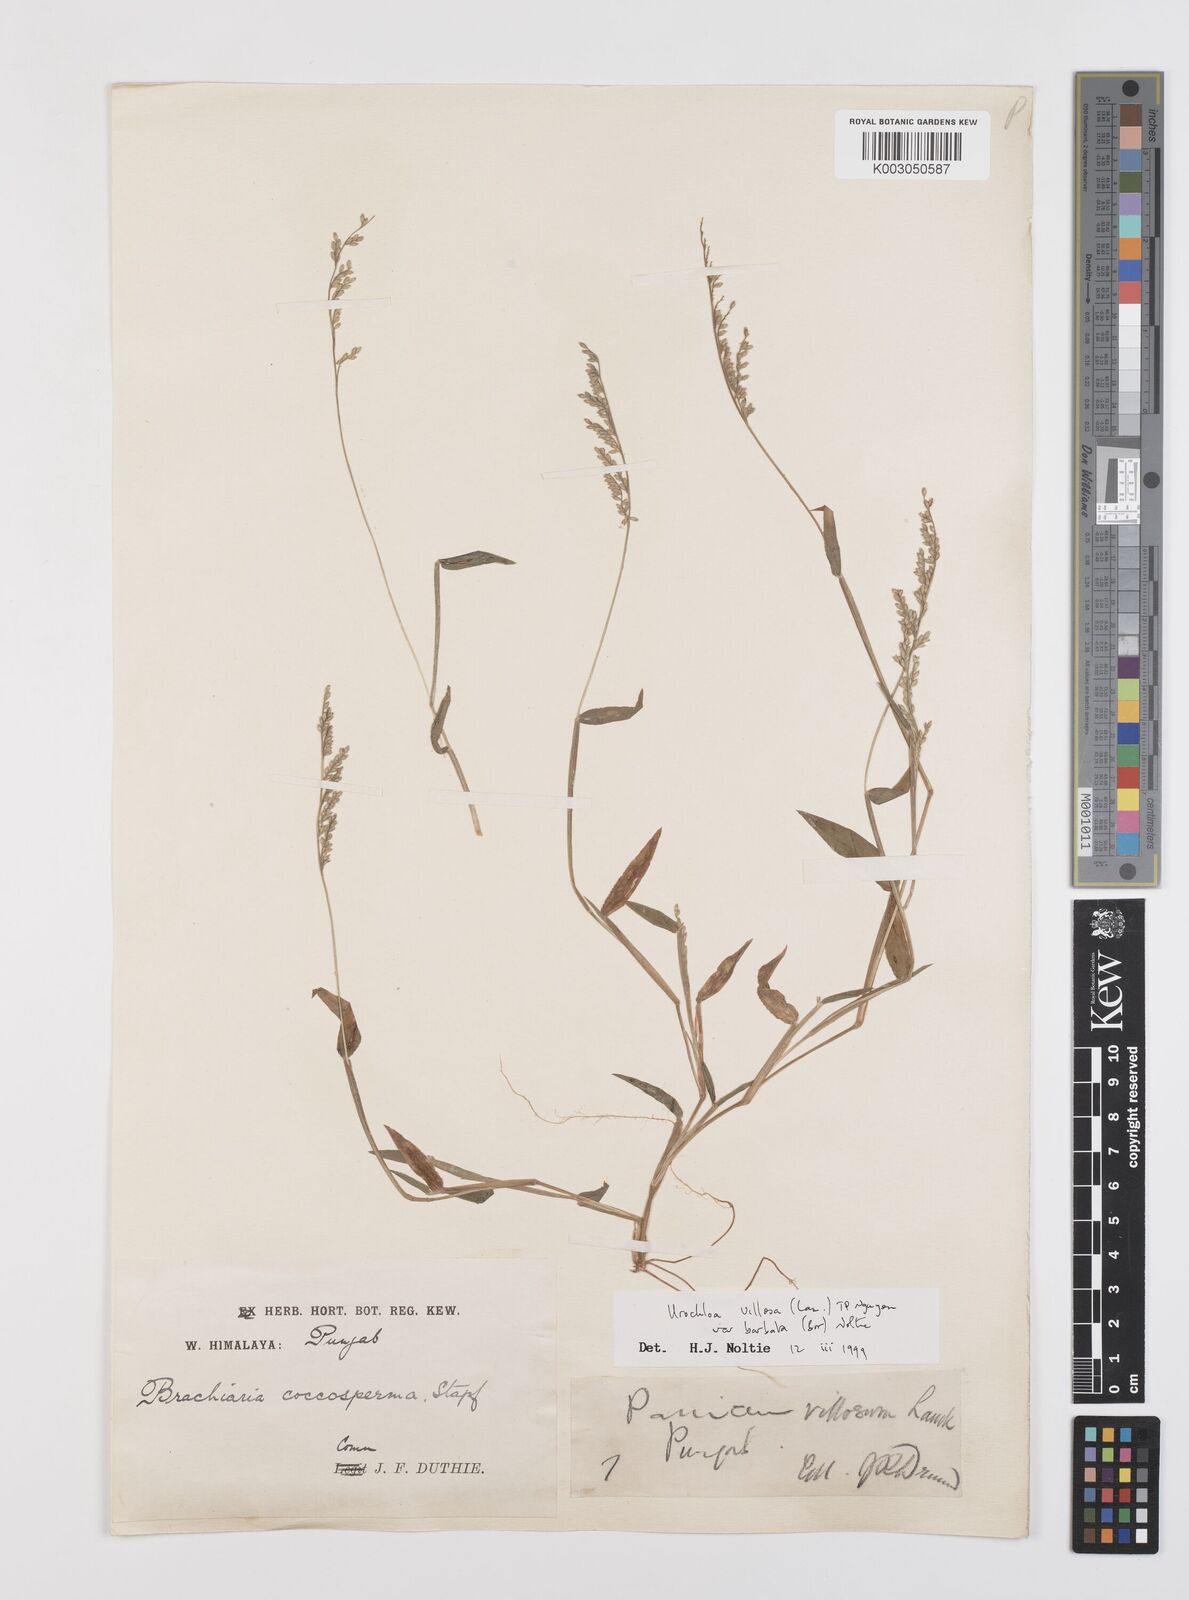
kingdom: Plantae
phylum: Tracheophyta
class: Liliopsida
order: Poales
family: Poaceae
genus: Urochloa
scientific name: Urochloa villosa
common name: Hairy signalgrass
